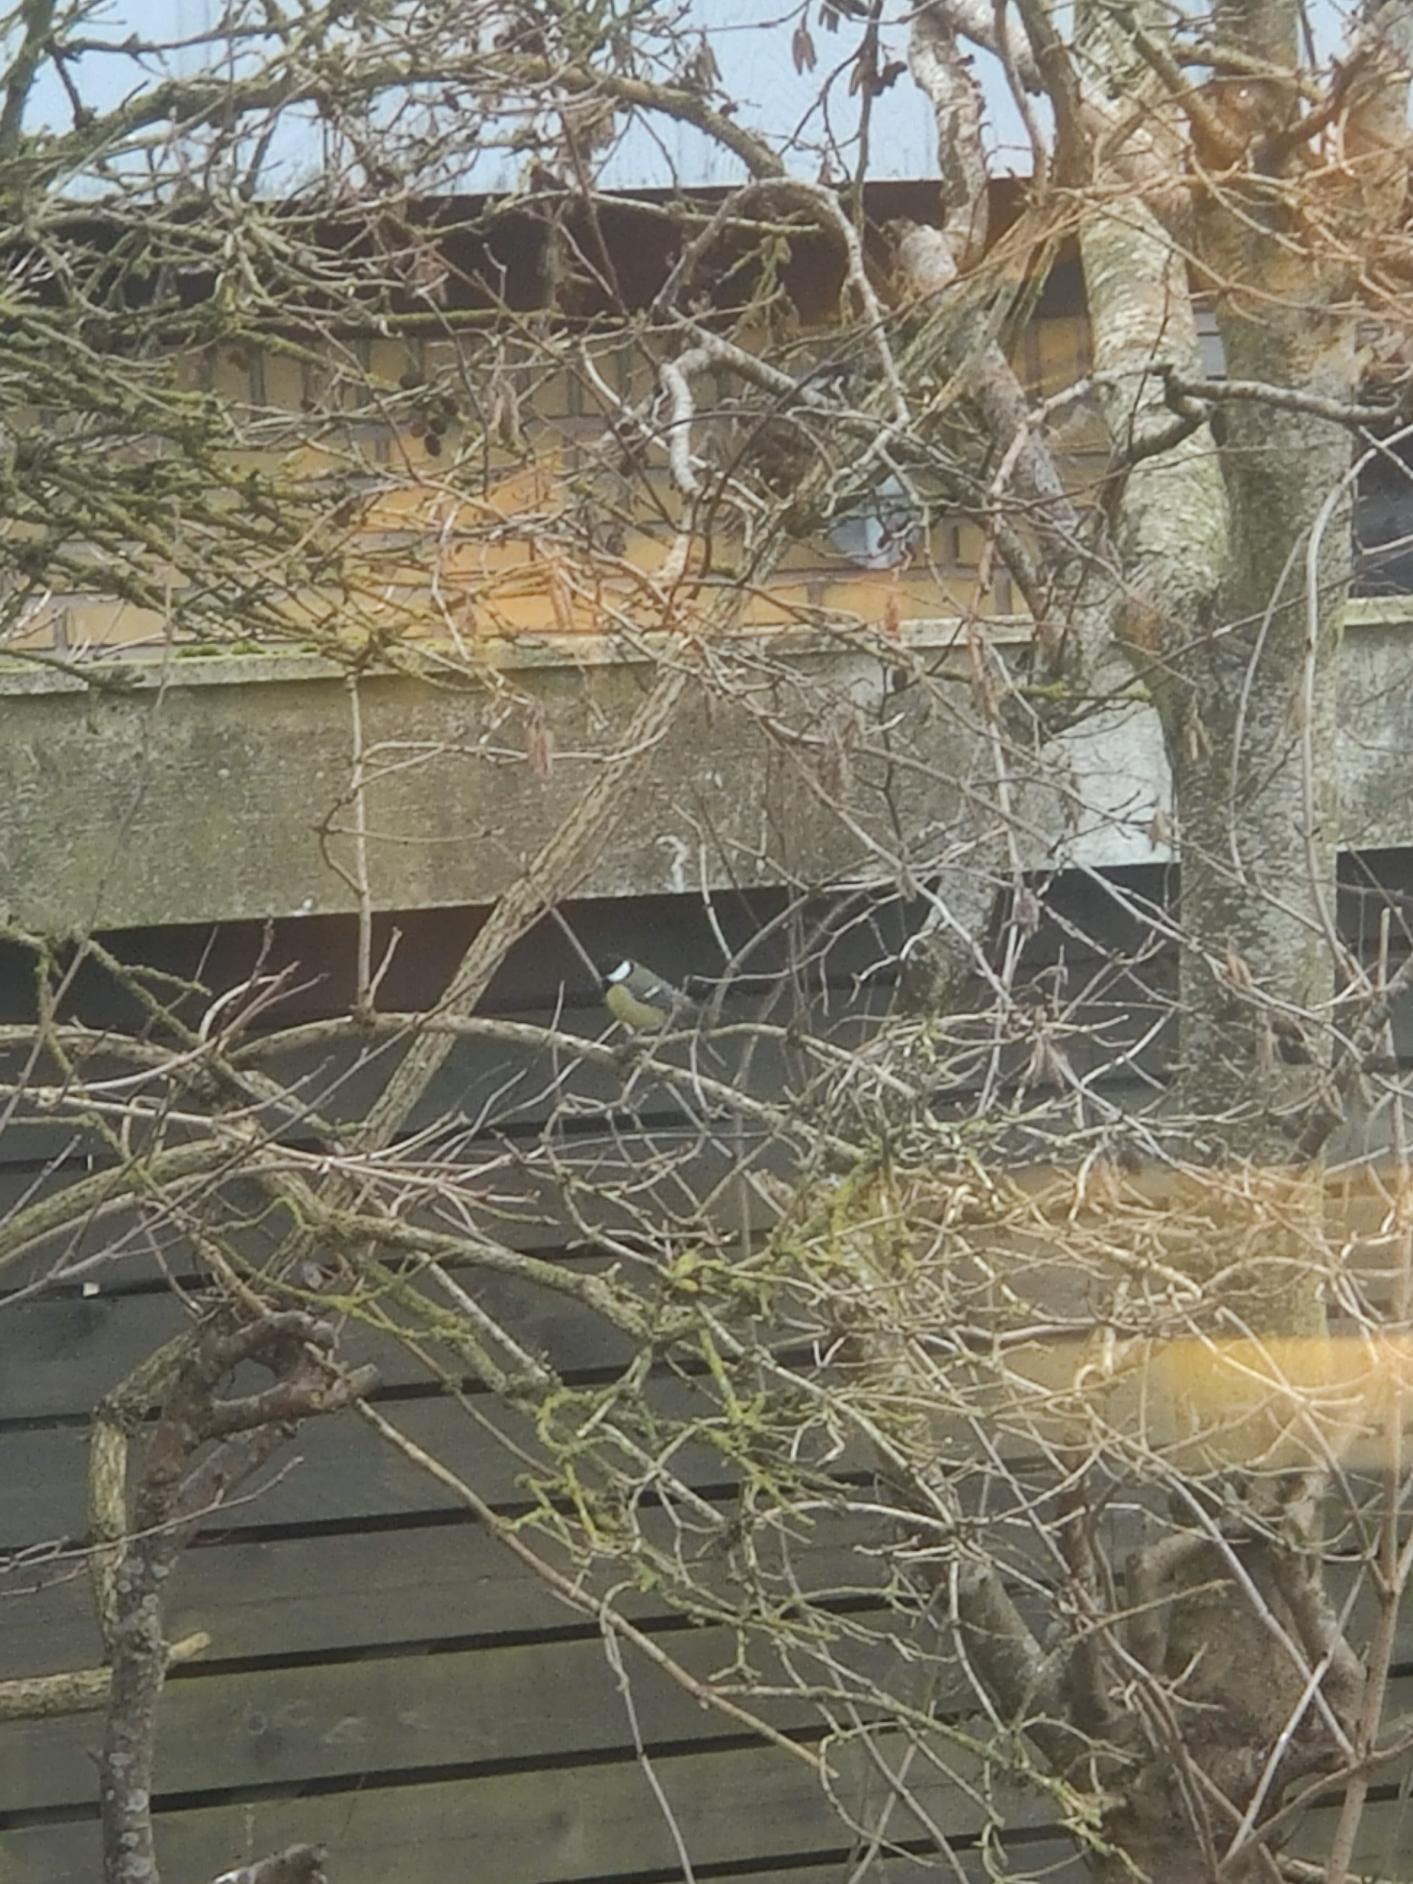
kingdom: Animalia
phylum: Chordata
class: Aves
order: Passeriformes
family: Paridae
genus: Parus
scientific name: Parus major
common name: Musvit
